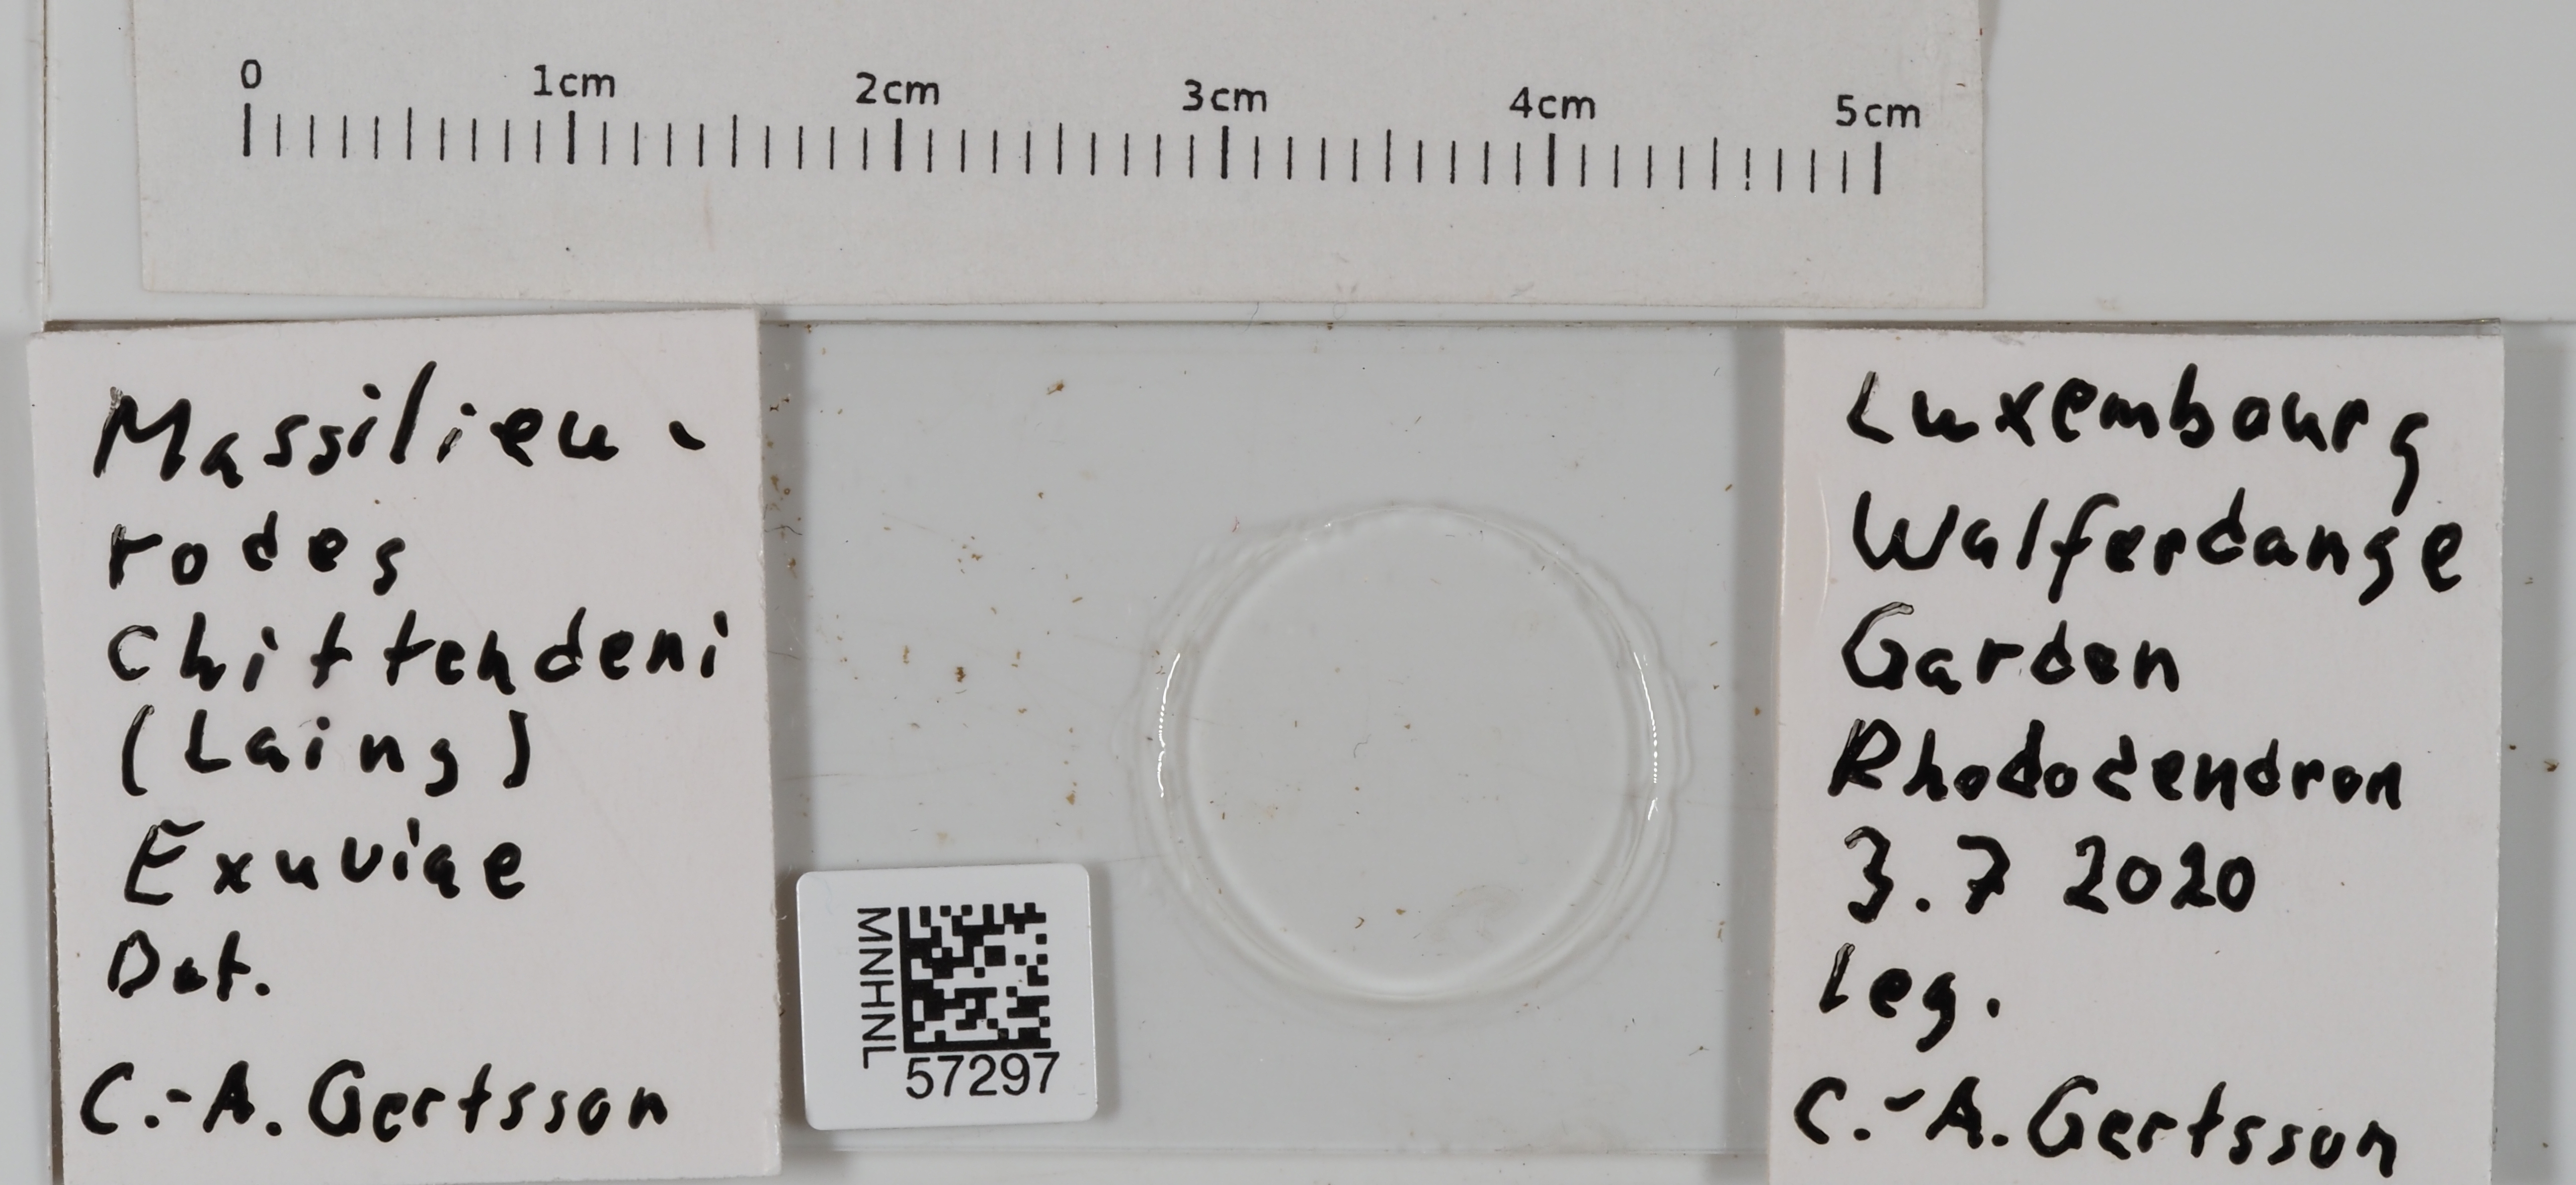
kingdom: Animalia
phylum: Arthropoda
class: Insecta
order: Hemiptera
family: Aleyrodidae
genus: Massilieurodes
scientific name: Massilieurodes chittendeni
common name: Rhododendron whitefly
